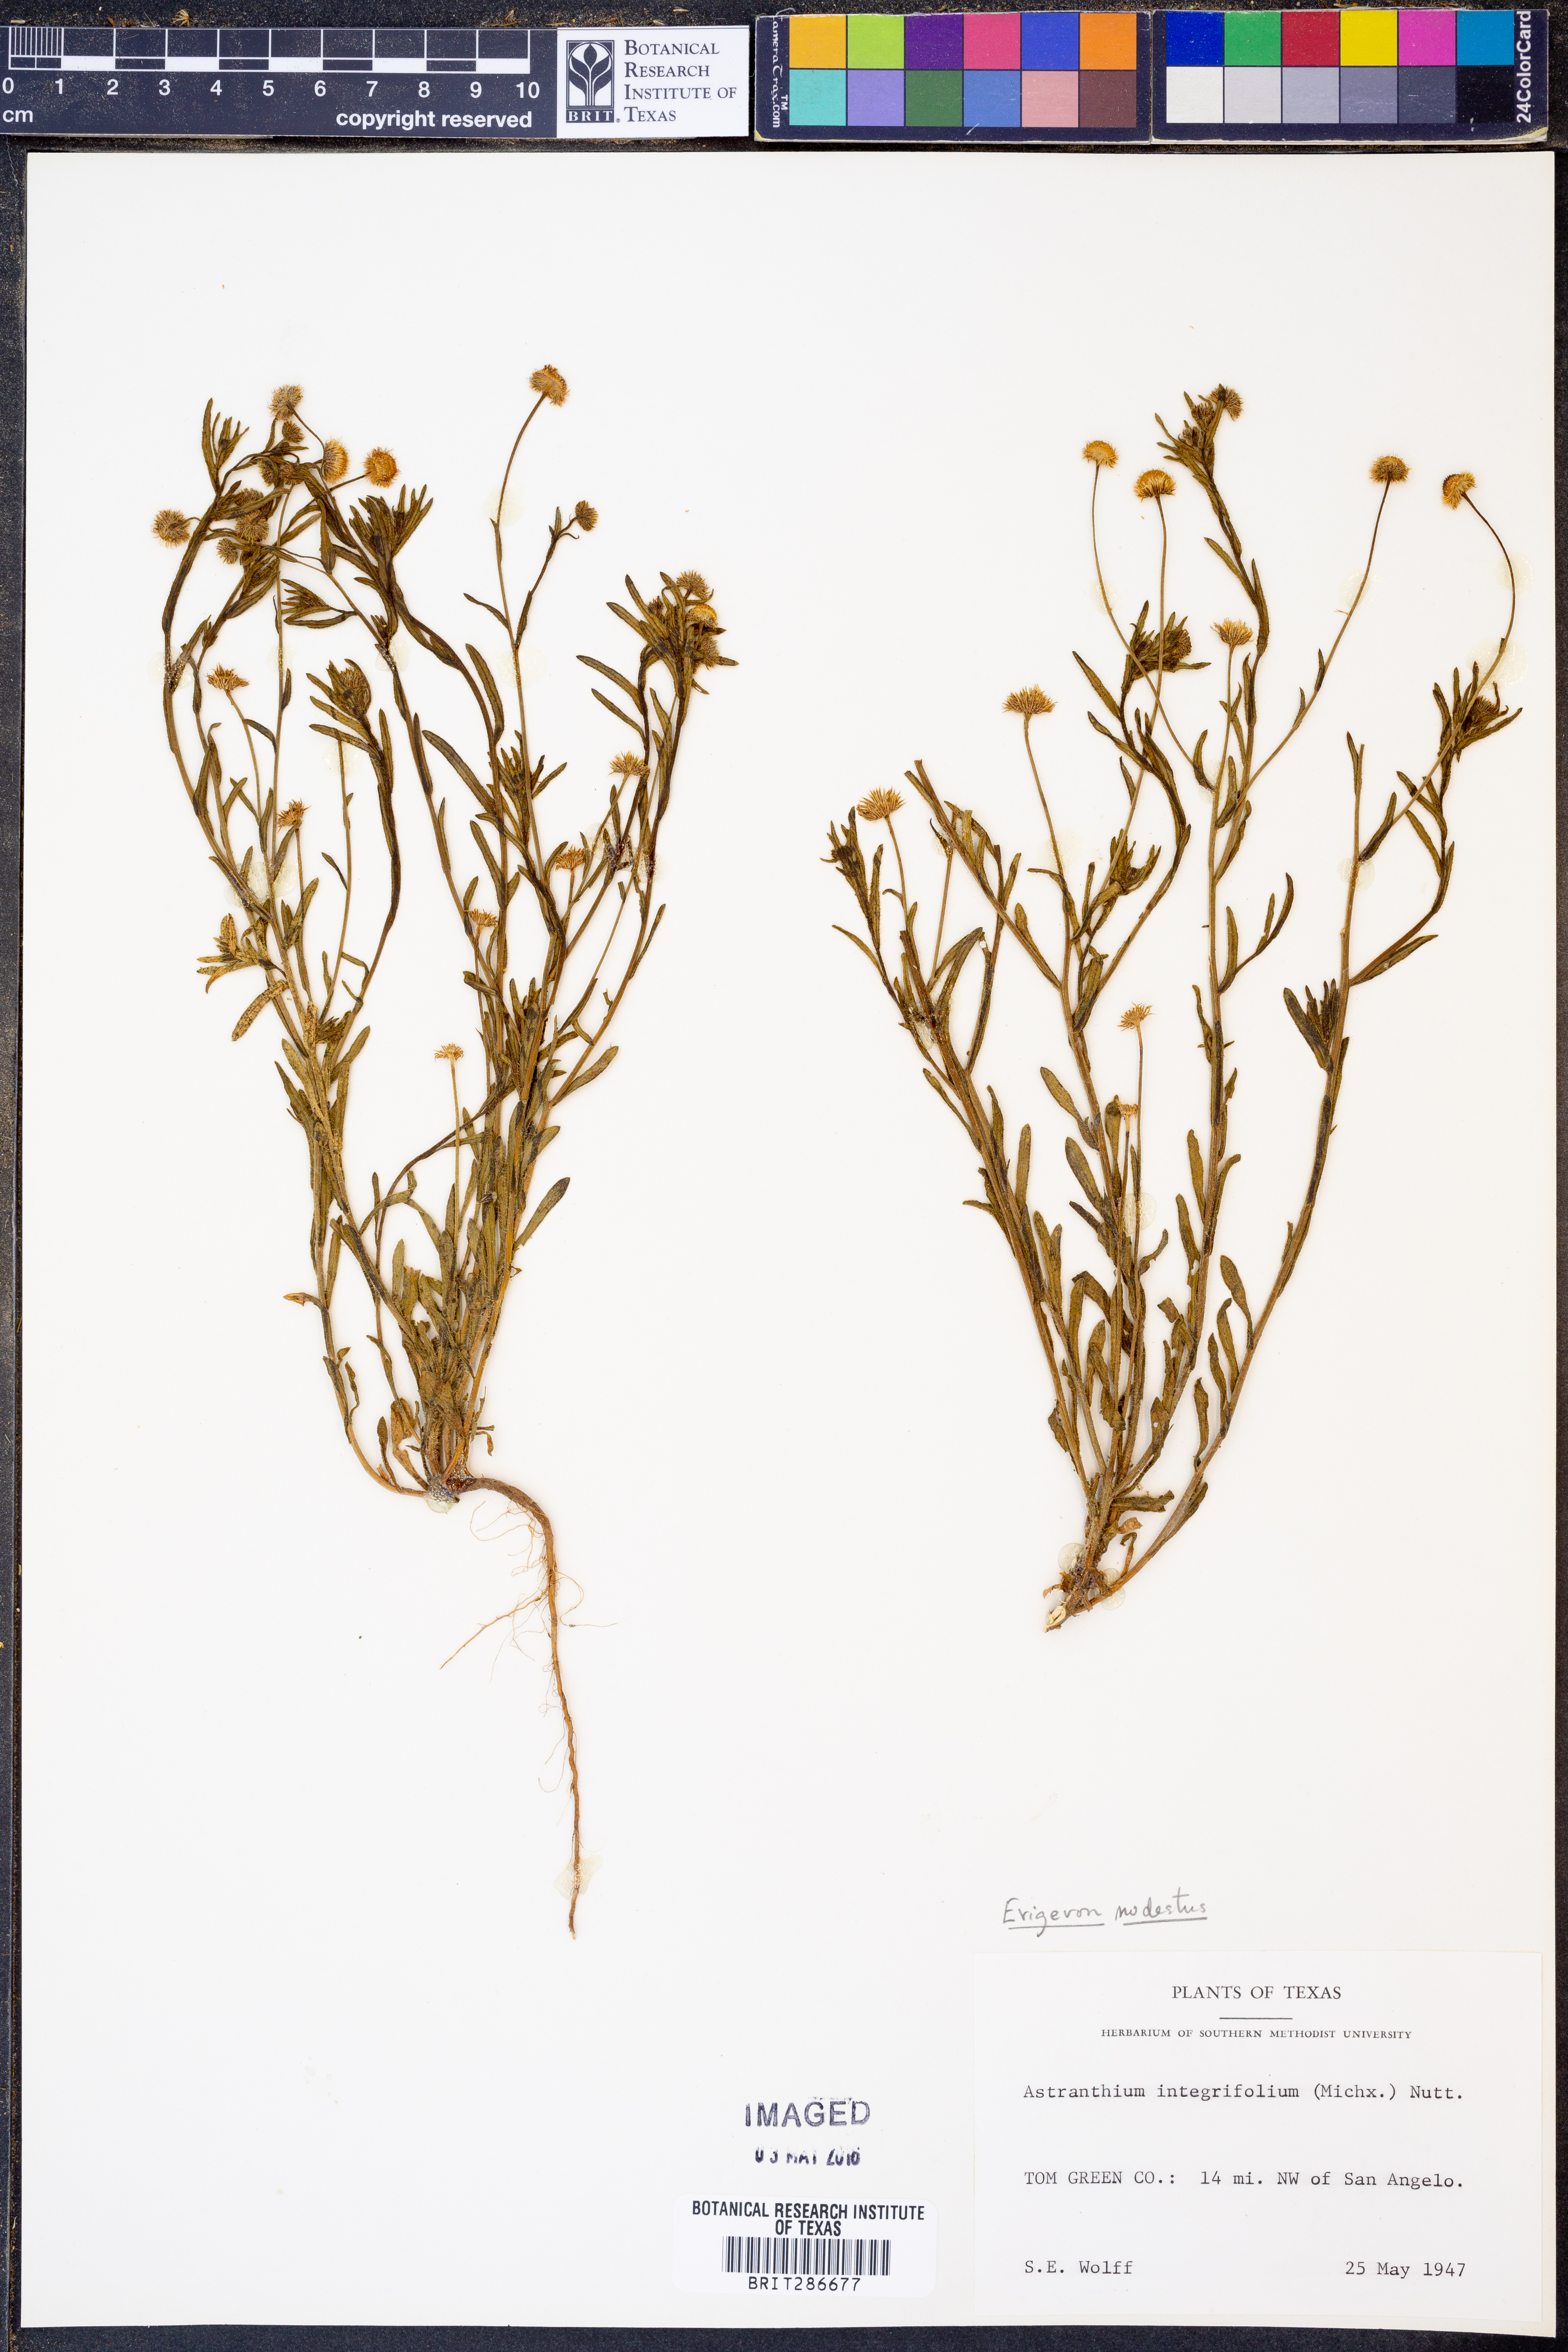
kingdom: Plantae
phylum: Tracheophyta
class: Magnoliopsida
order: Asterales
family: Asteraceae
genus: Erigeron
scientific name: Erigeron modestus
